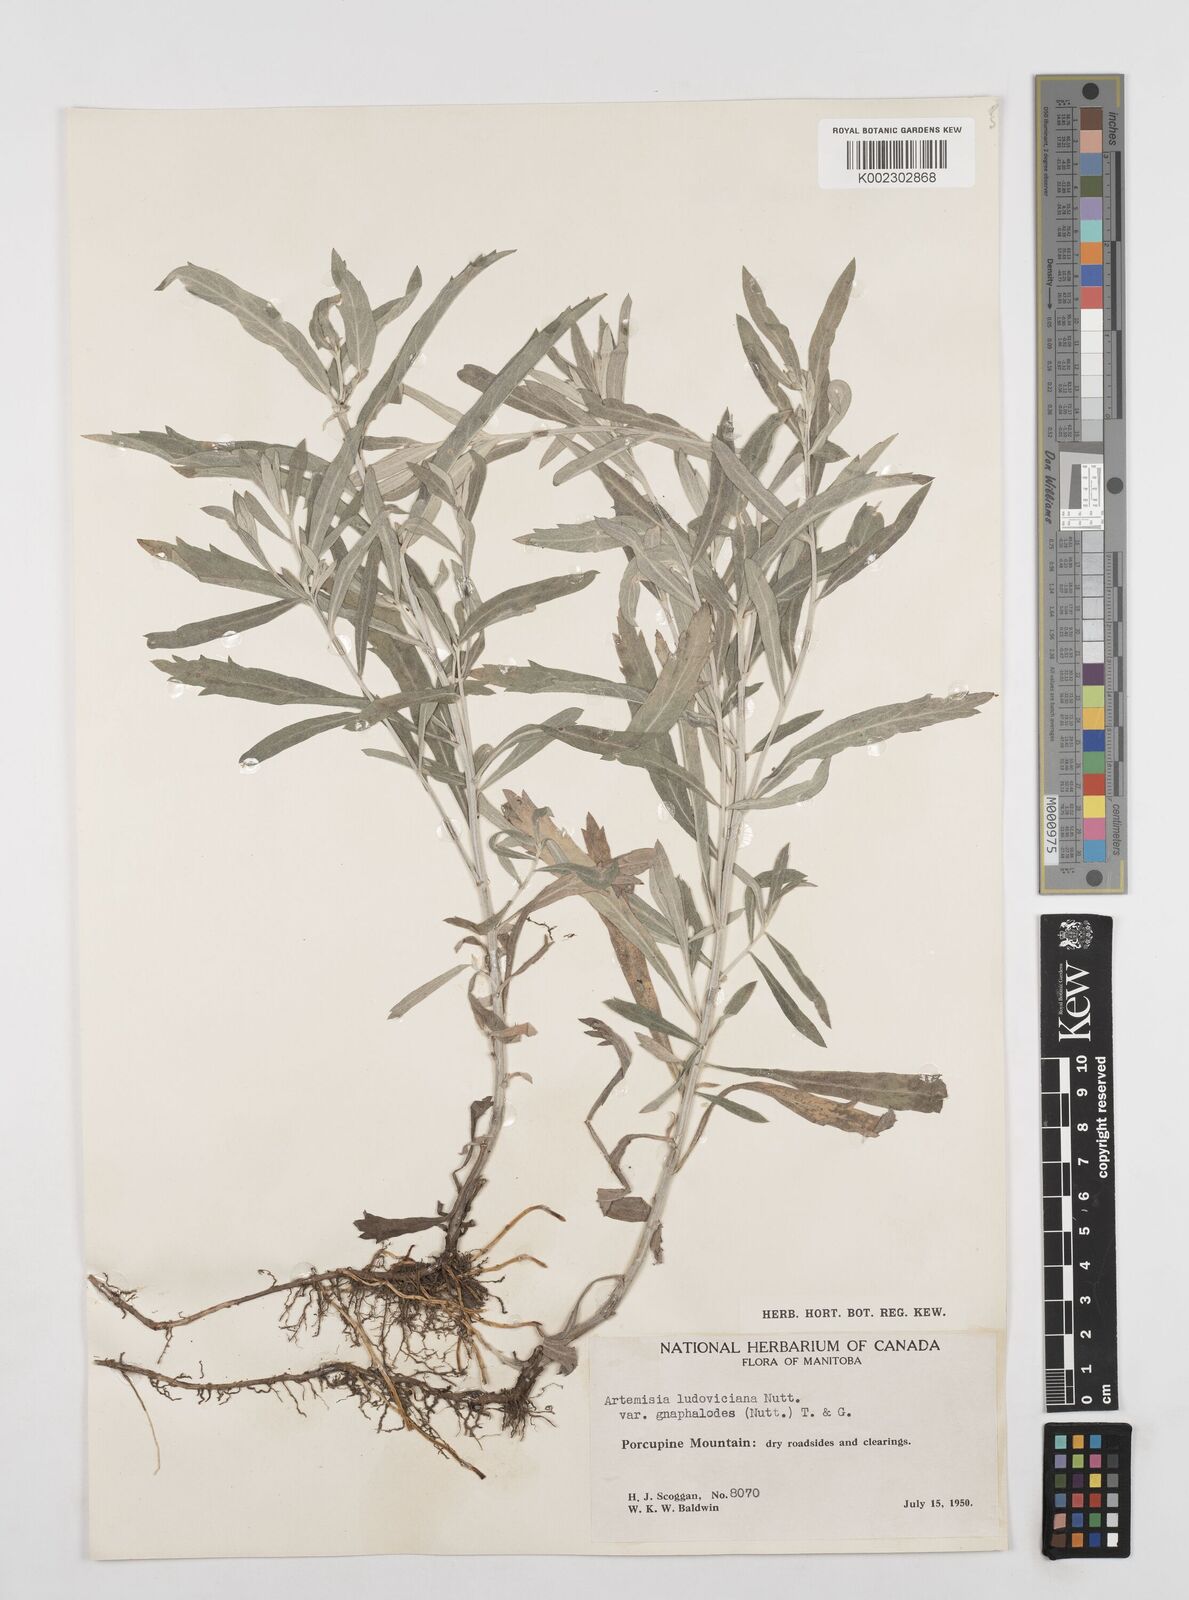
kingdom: Plantae
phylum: Tracheophyta
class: Magnoliopsida
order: Asterales
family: Asteraceae
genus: Artemisia
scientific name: Artemisia ludoviciana
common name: Western mugwort
